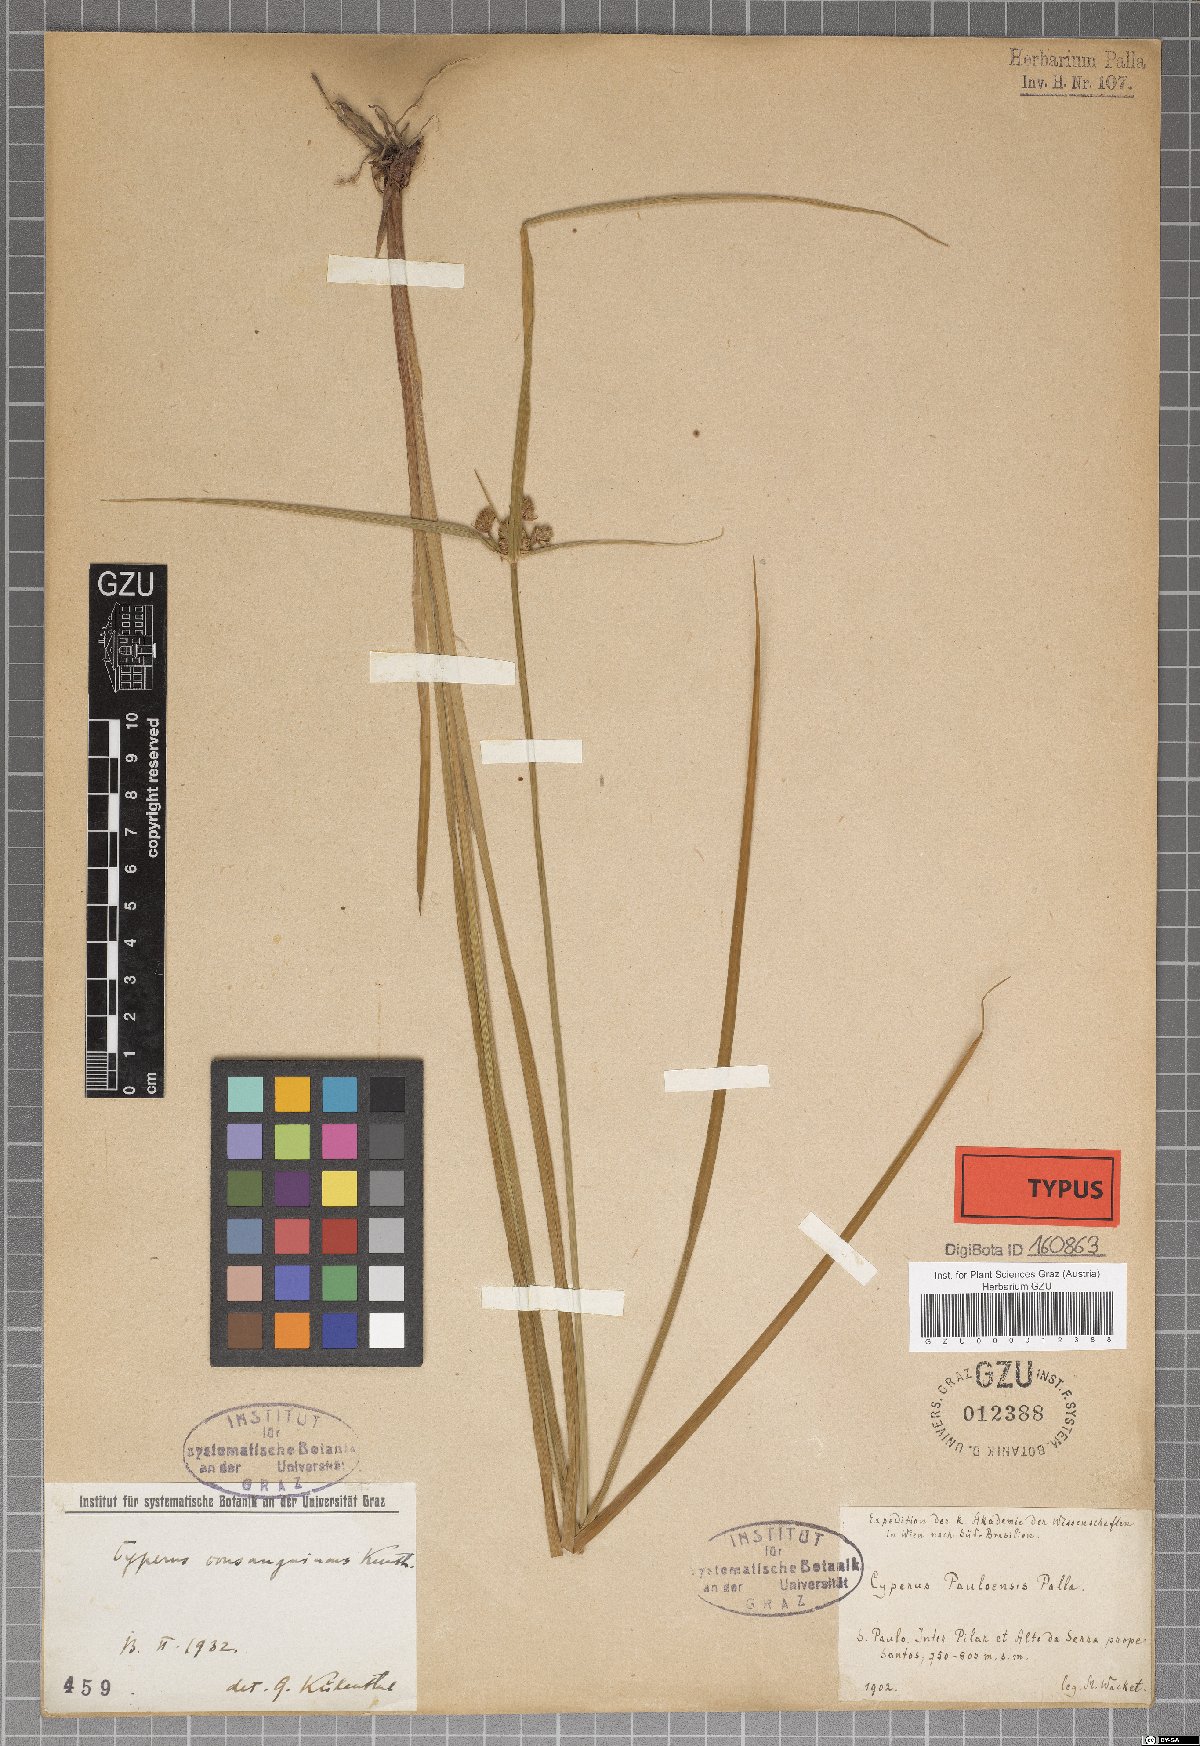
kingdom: Plantae
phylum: Tracheophyta
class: Liliopsida
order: Poales
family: Cyperaceae
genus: Cyperus
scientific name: Cyperus intricatus
